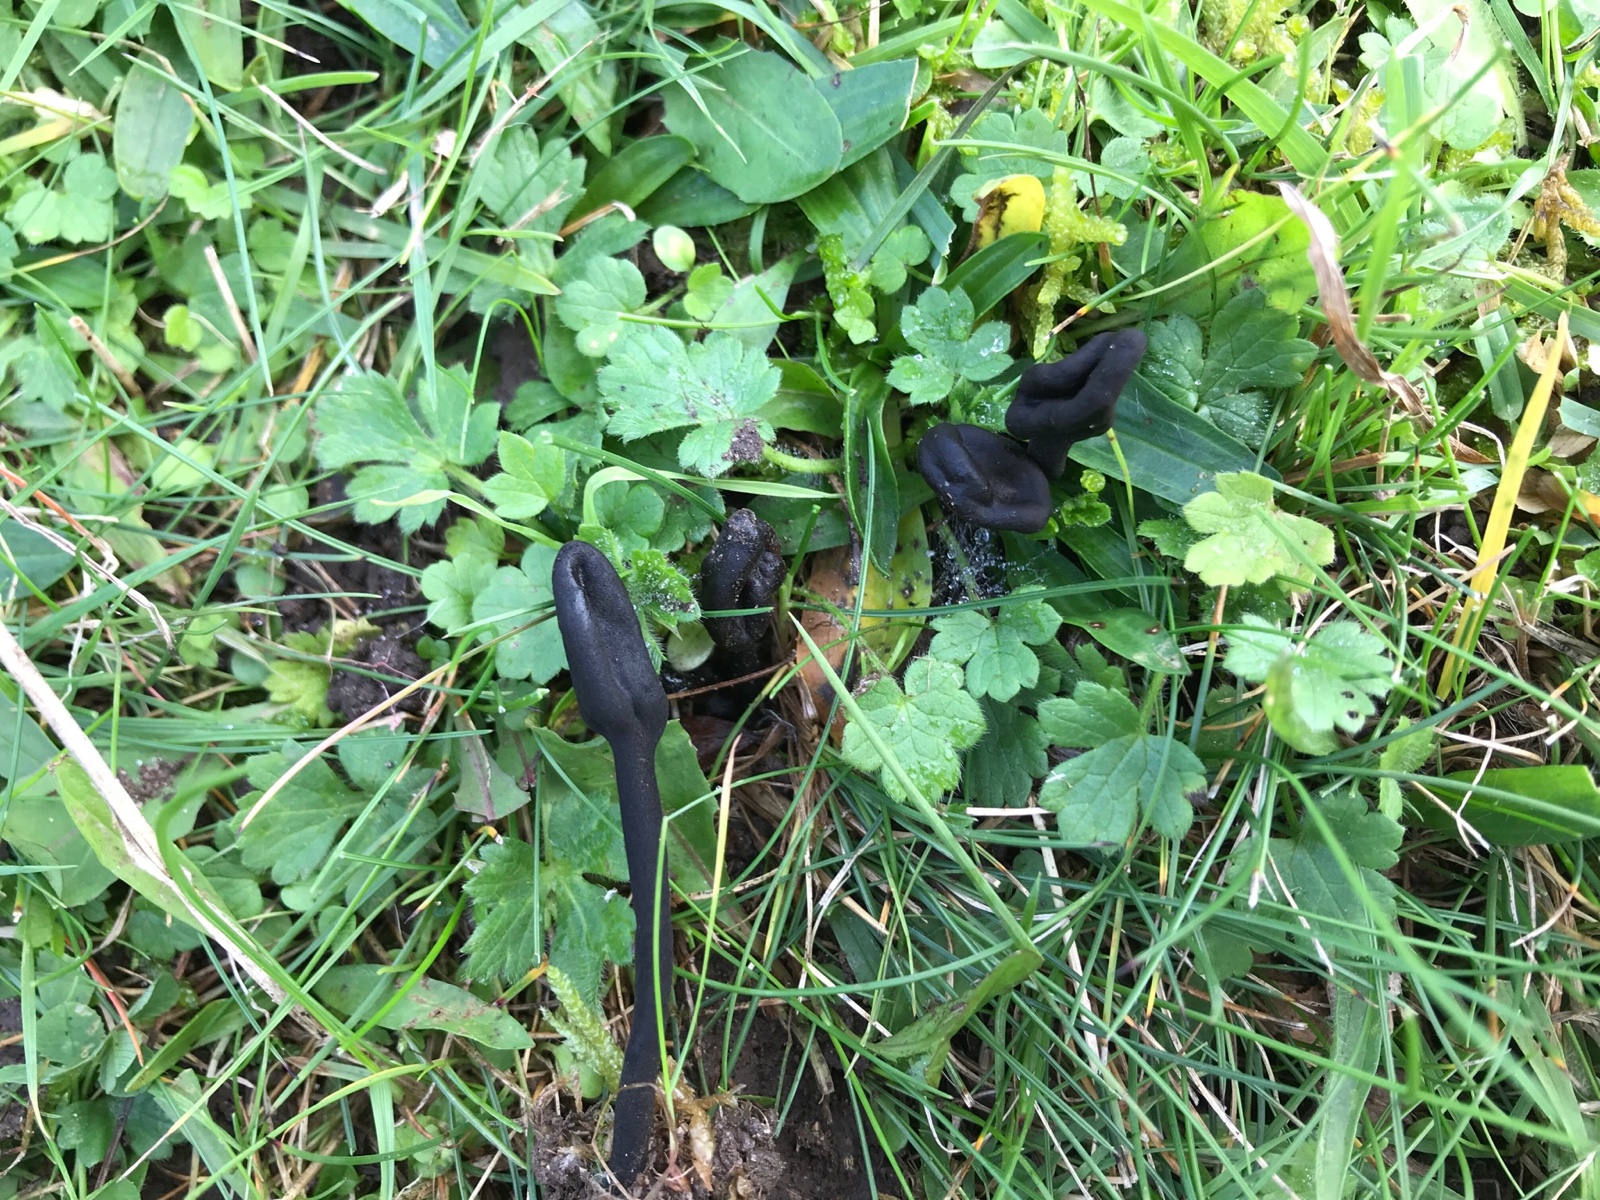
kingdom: Fungi
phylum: Ascomycota
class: Geoglossomycetes
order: Geoglossales
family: Geoglossaceae
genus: Trichoglossum
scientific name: Trichoglossum hirsutum
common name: håret jordtunge
